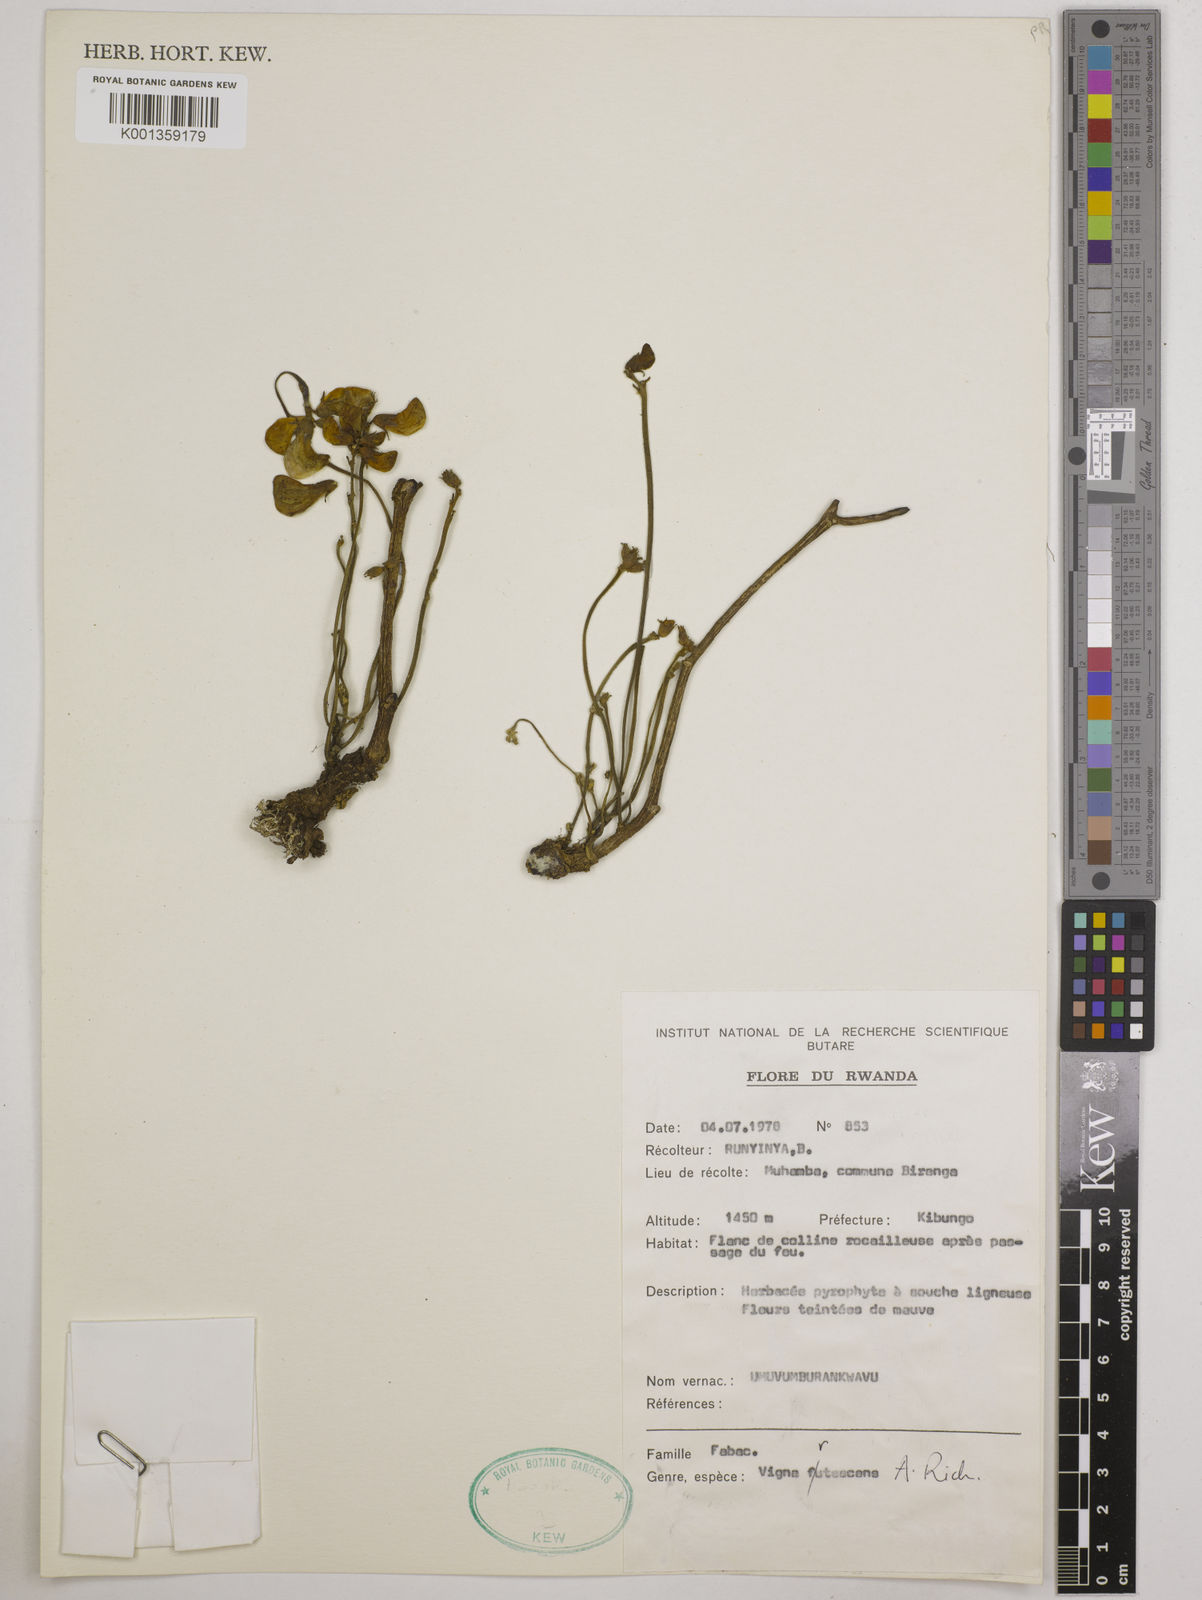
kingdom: Plantae
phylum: Tracheophyta
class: Magnoliopsida
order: Fabales
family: Fabaceae
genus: Vigna
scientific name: Vigna frutescens
